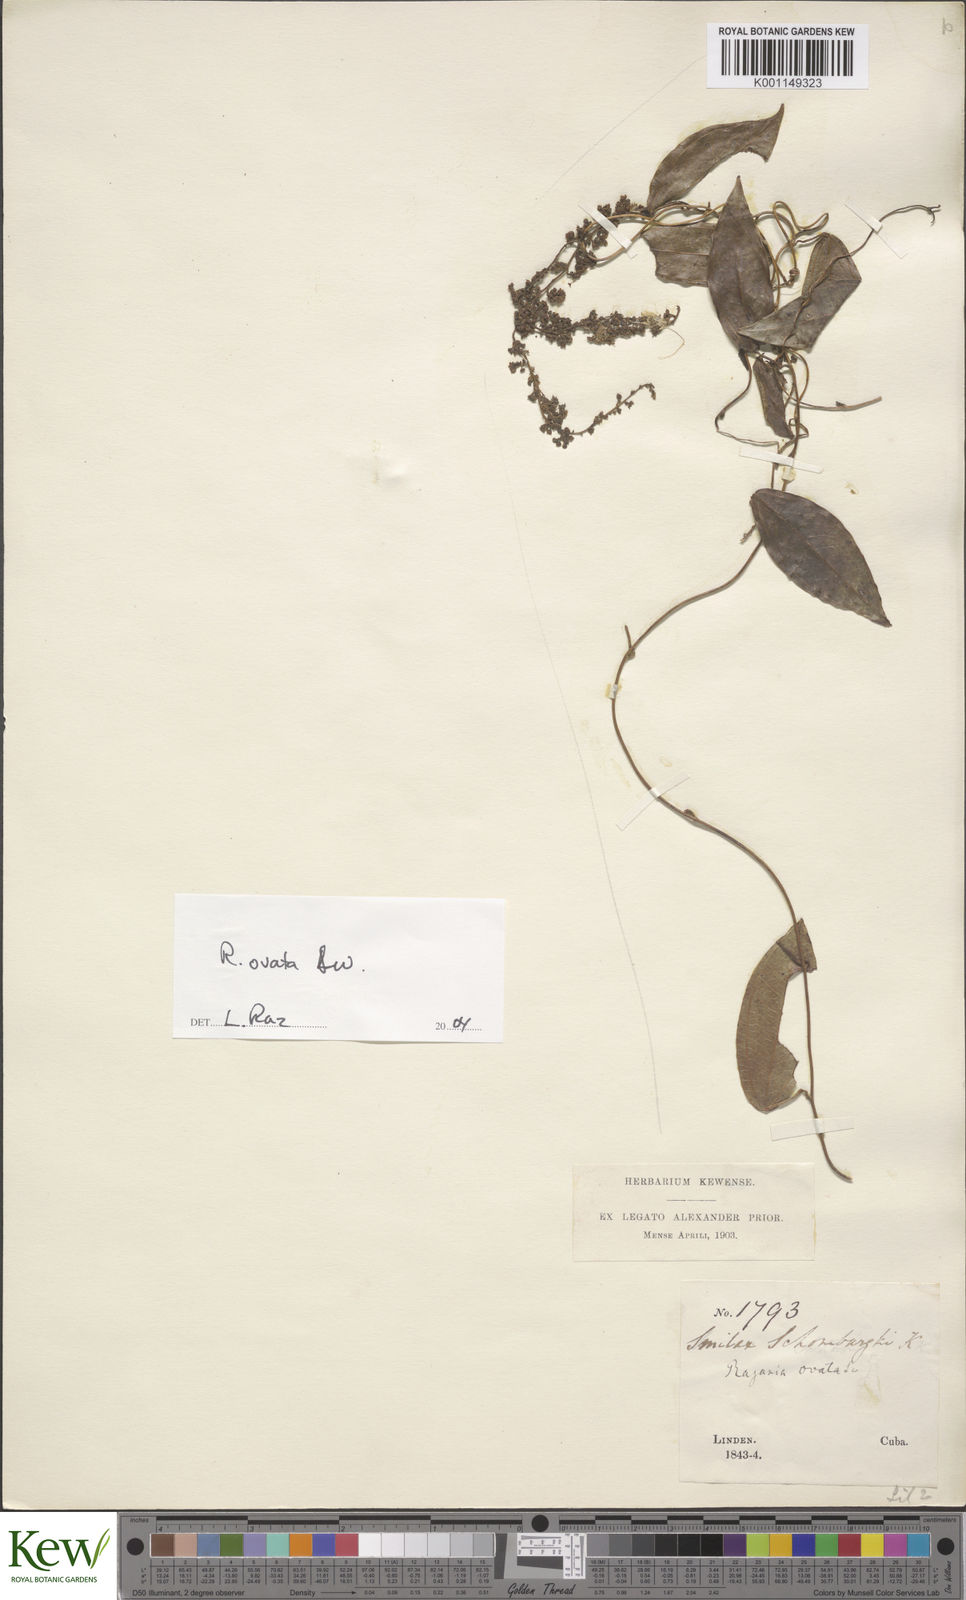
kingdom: Plantae
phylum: Tracheophyta
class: Liliopsida
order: Dioscoreales
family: Dioscoreaceae
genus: Dioscorea
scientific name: Dioscorea ovata
